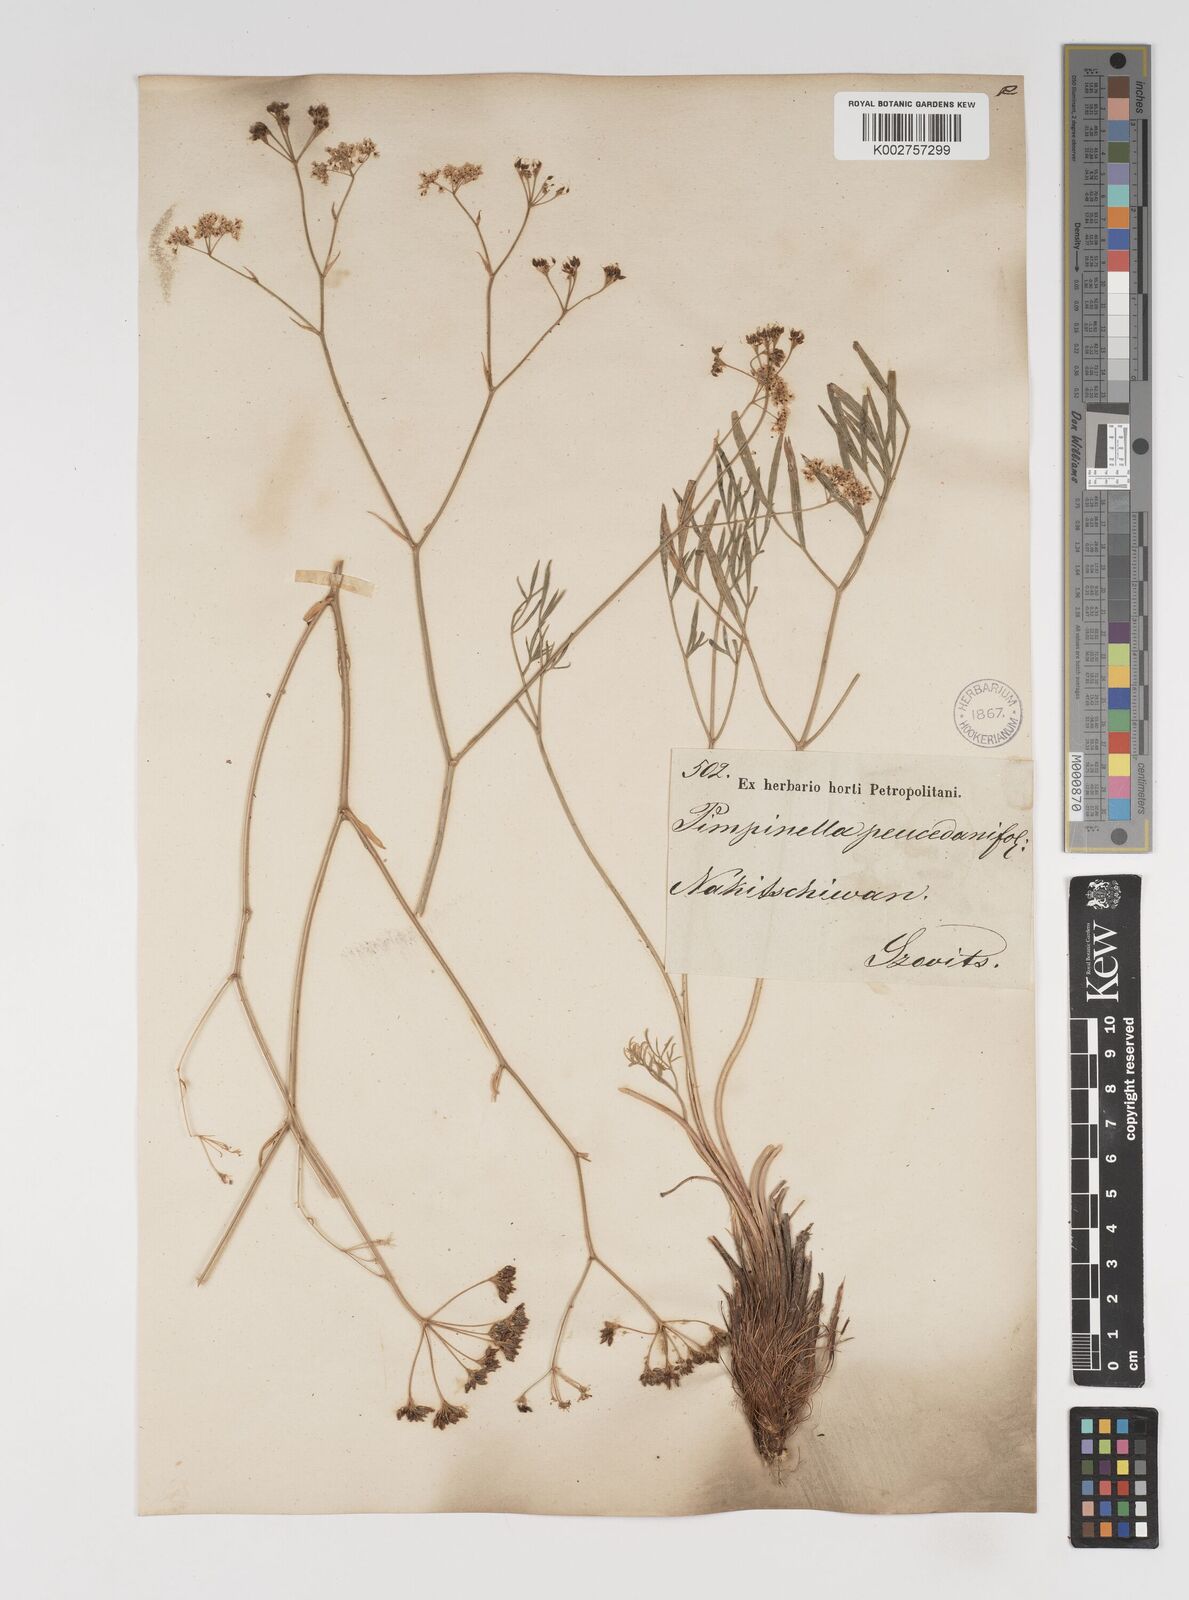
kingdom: Plantae
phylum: Tracheophyta
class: Magnoliopsida
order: Apiales
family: Apiaceae
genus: Seseli
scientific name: Seseli besserianum
